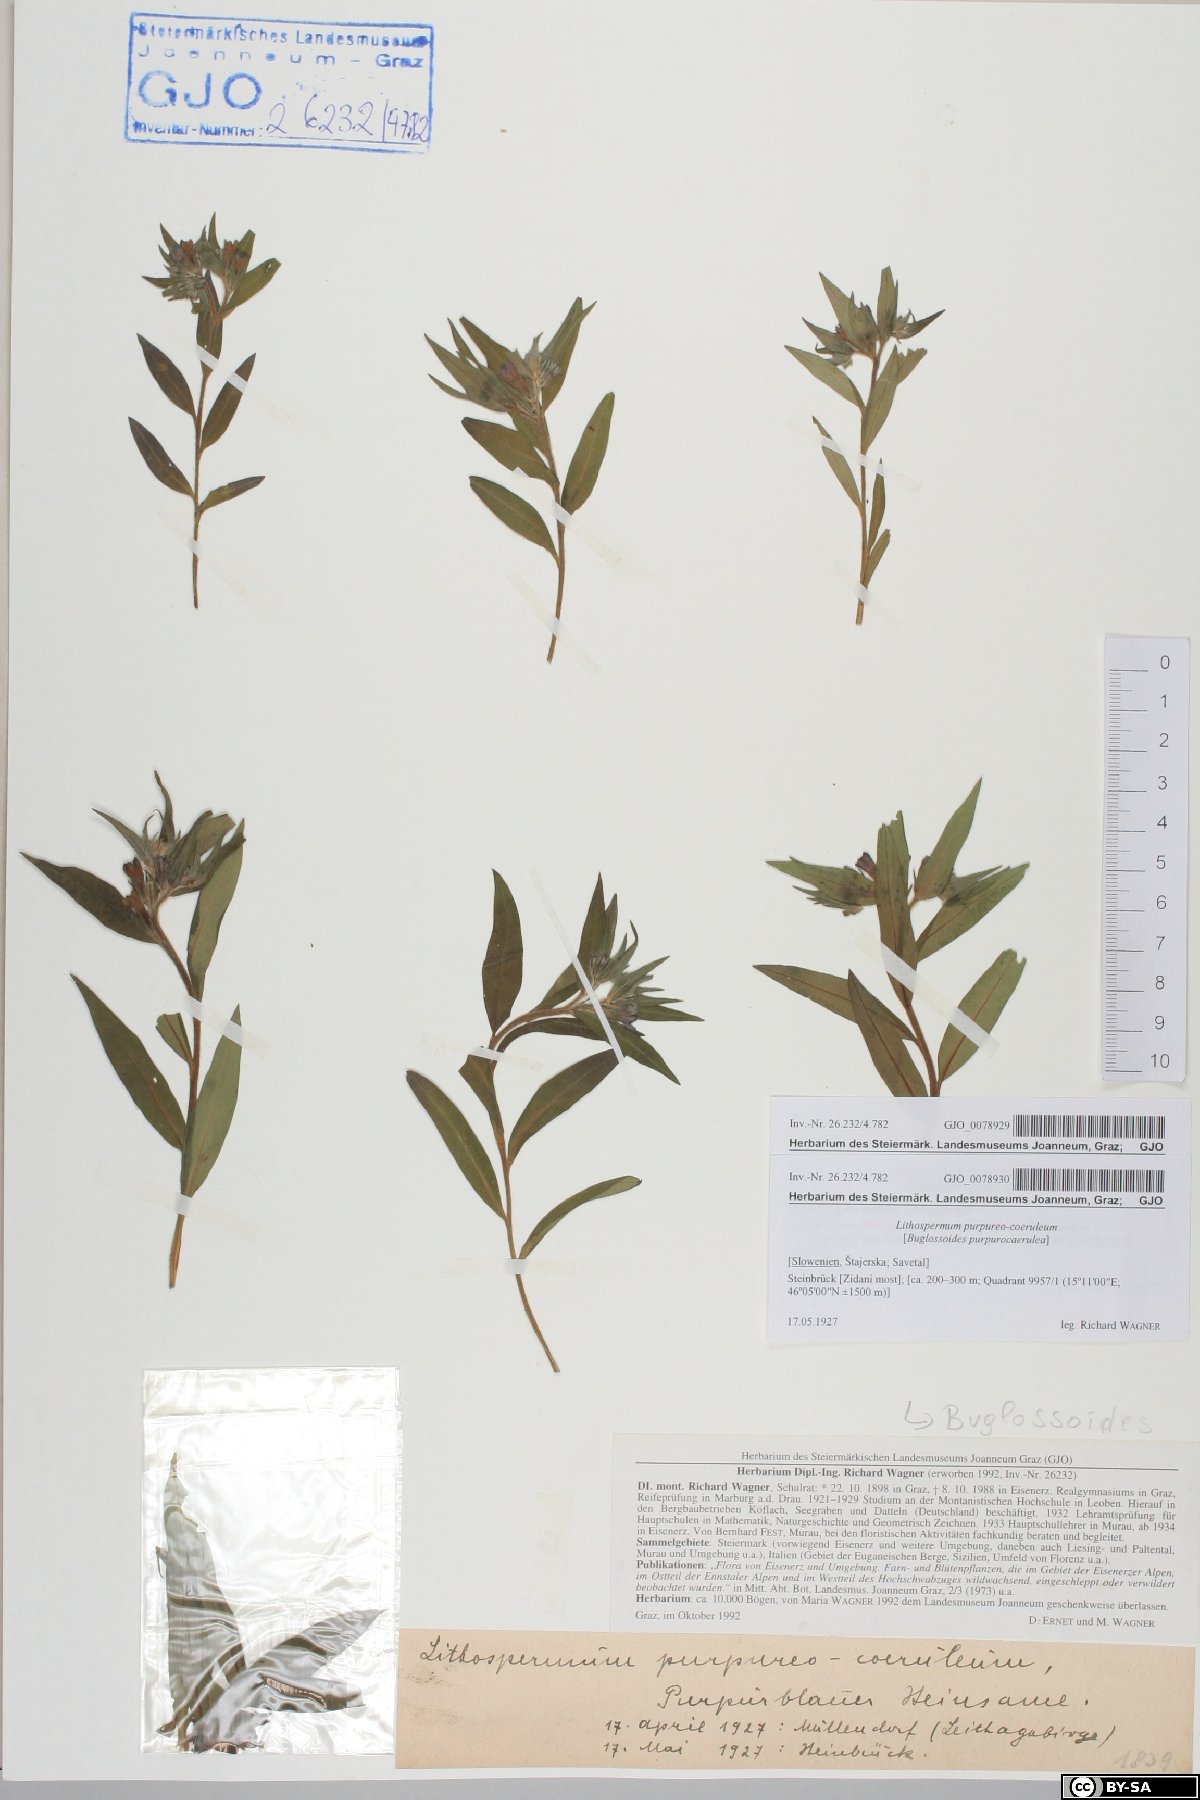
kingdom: Plantae
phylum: Tracheophyta
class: Magnoliopsida
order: Boraginales
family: Boraginaceae
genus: Aegonychon
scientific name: Aegonychon purpurocaeruleum
